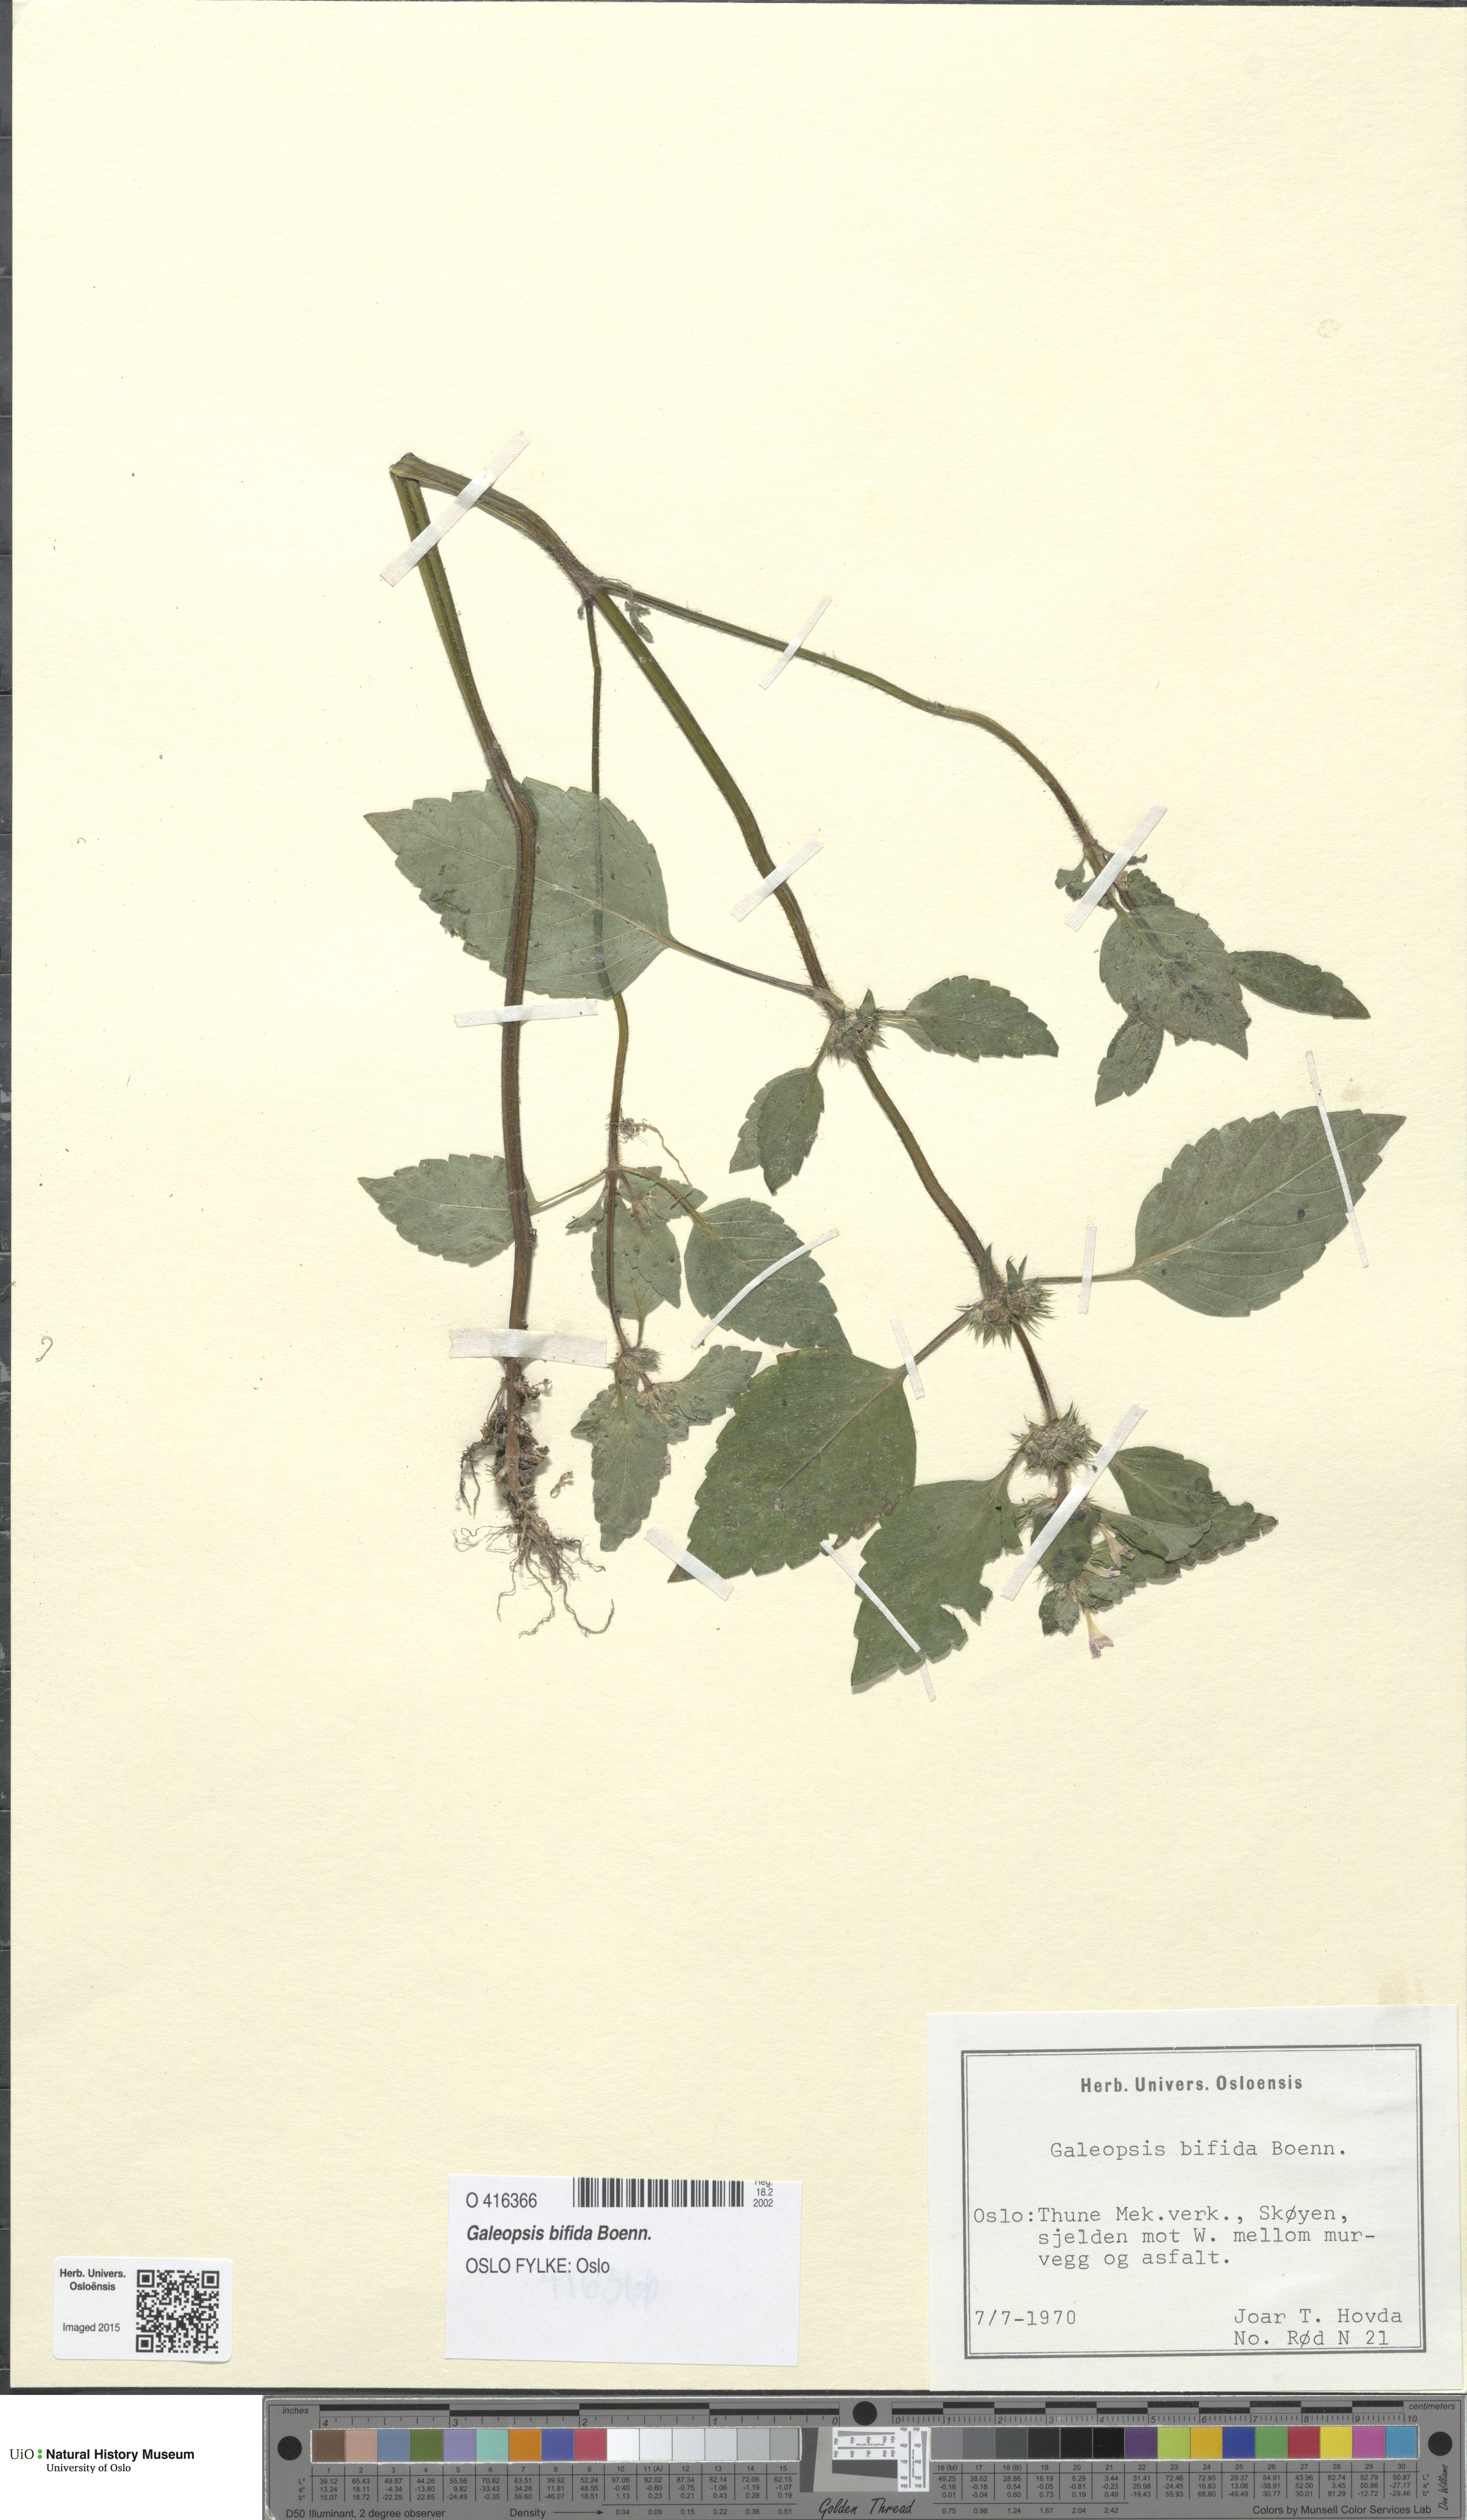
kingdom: Plantae
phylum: Tracheophyta
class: Magnoliopsida
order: Lamiales
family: Lamiaceae
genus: Galeopsis
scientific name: Galeopsis bifida
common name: Bifid hemp-nettle
